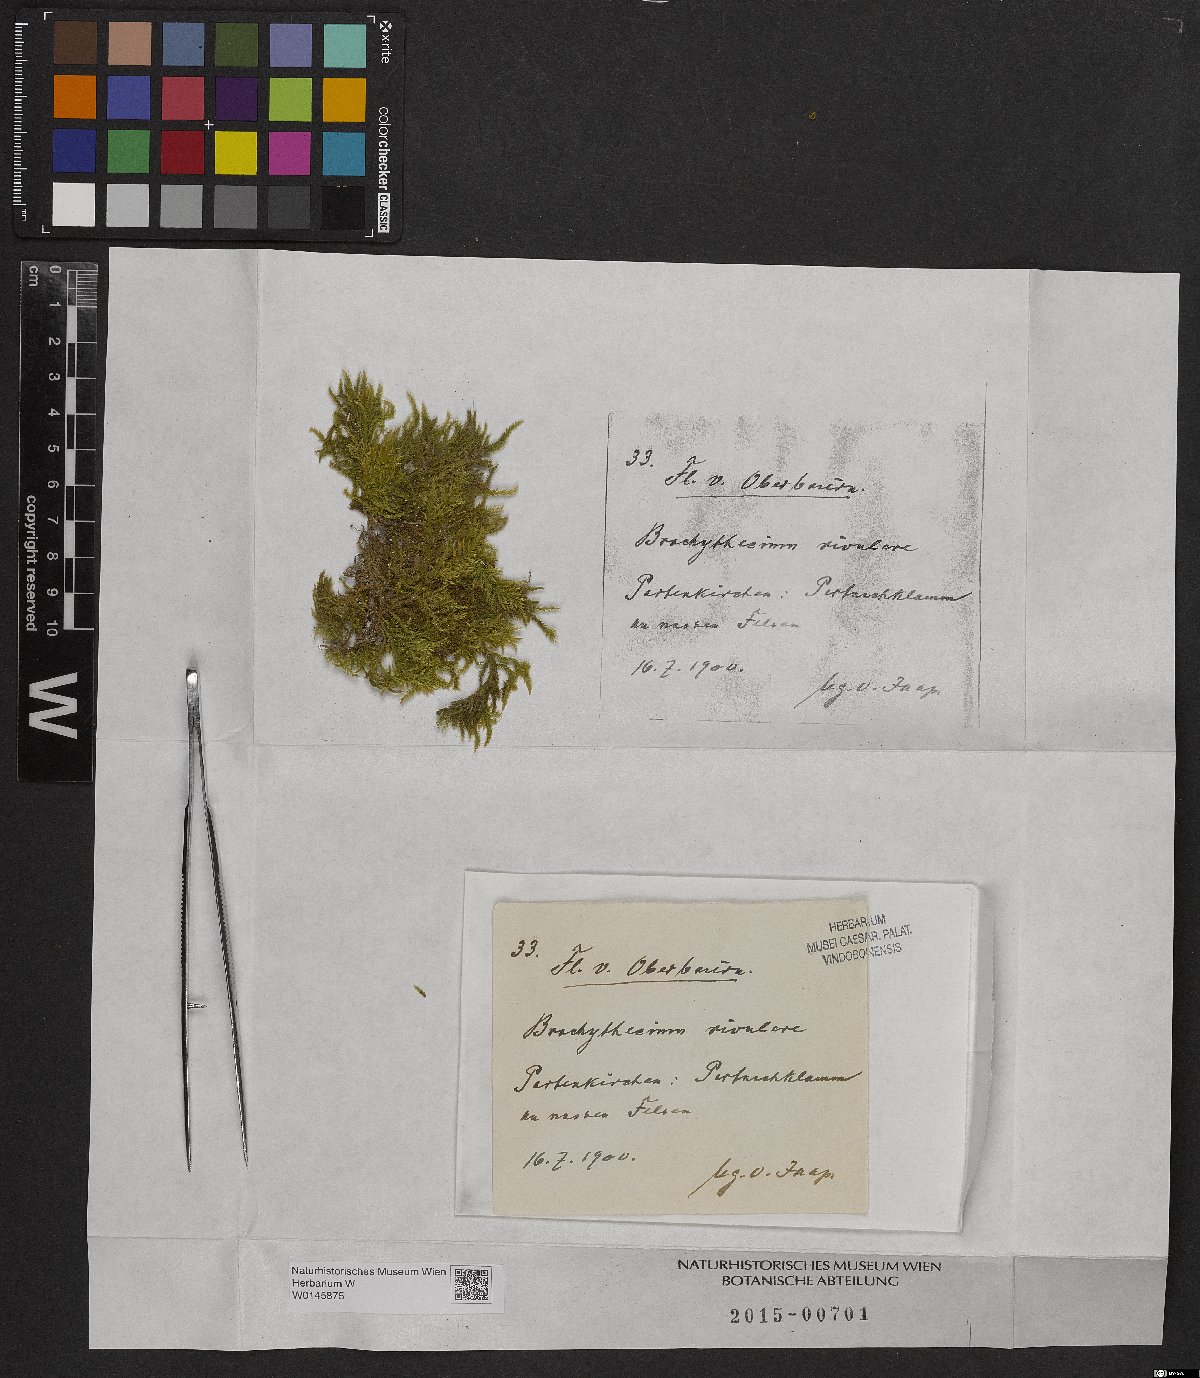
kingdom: Plantae
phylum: Bryophyta
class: Bryopsida
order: Hypnales
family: Brachytheciaceae
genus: Brachythecium
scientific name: Brachythecium rivulare
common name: River ragged moss
